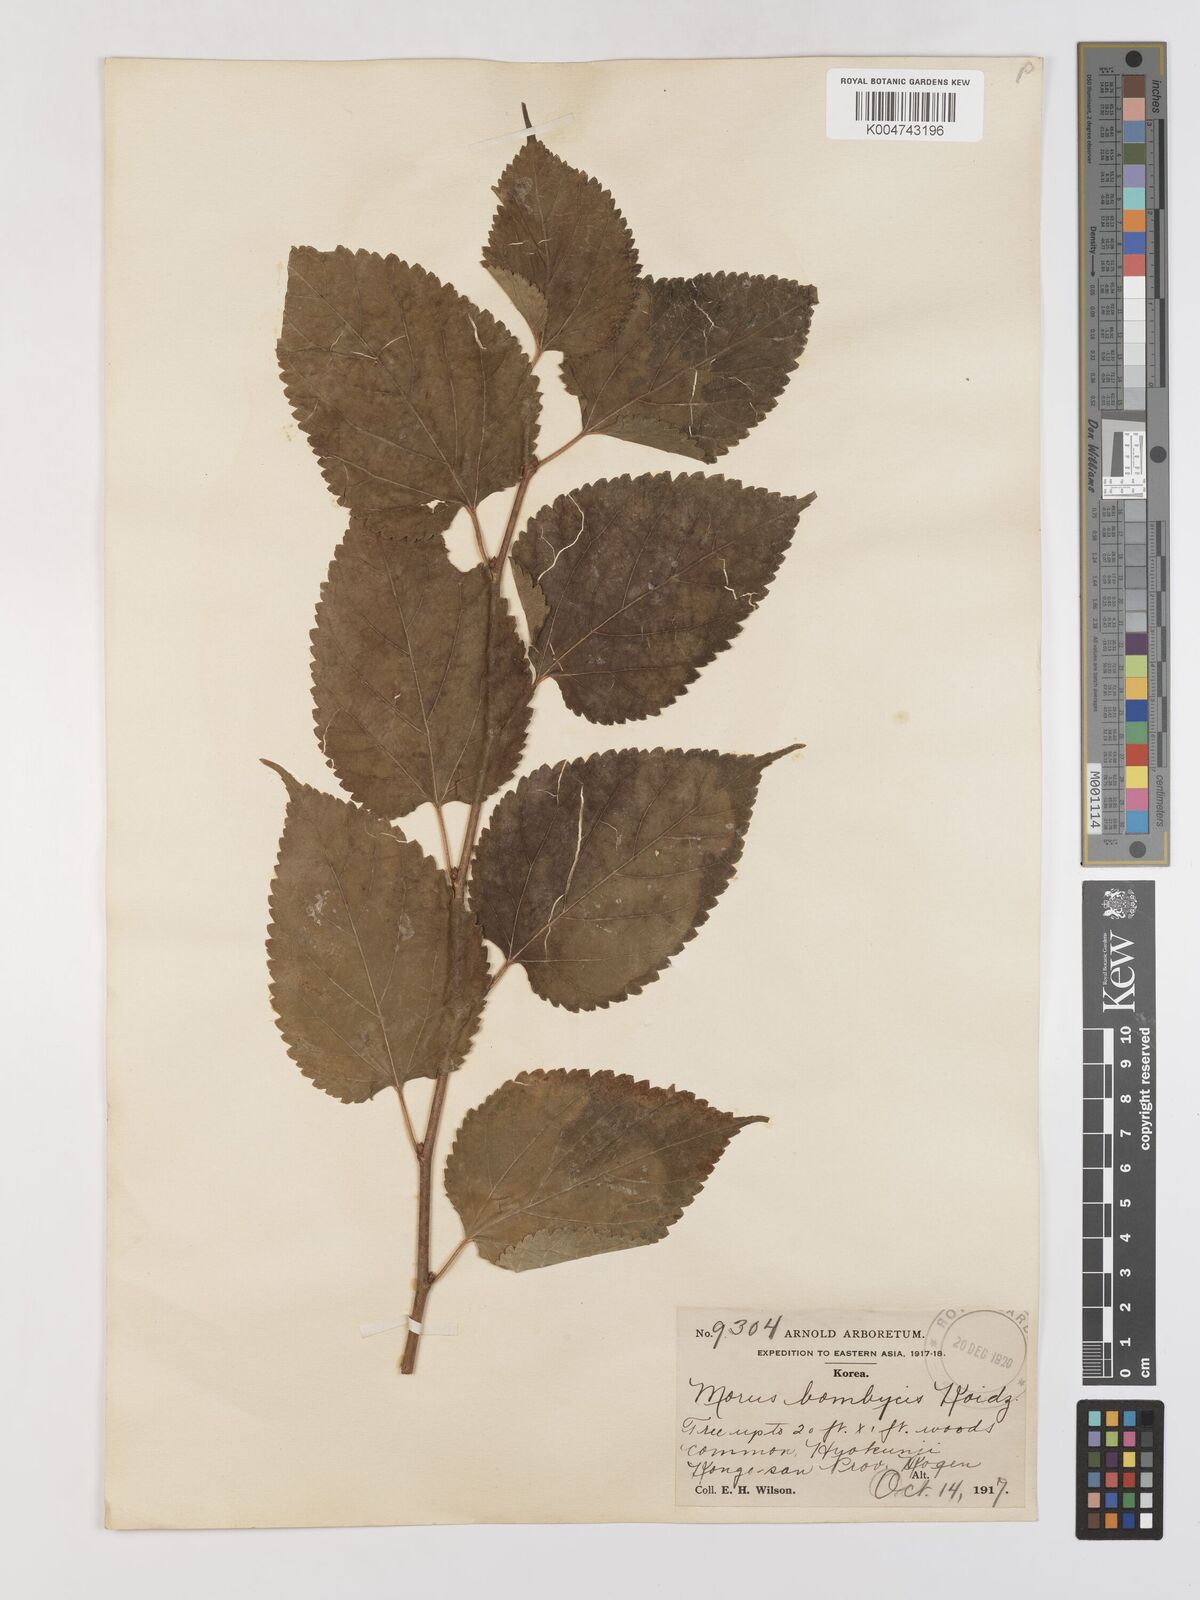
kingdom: Plantae
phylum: Tracheophyta
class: Magnoliopsida
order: Rosales
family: Moraceae
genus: Morus
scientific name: Morus indica
